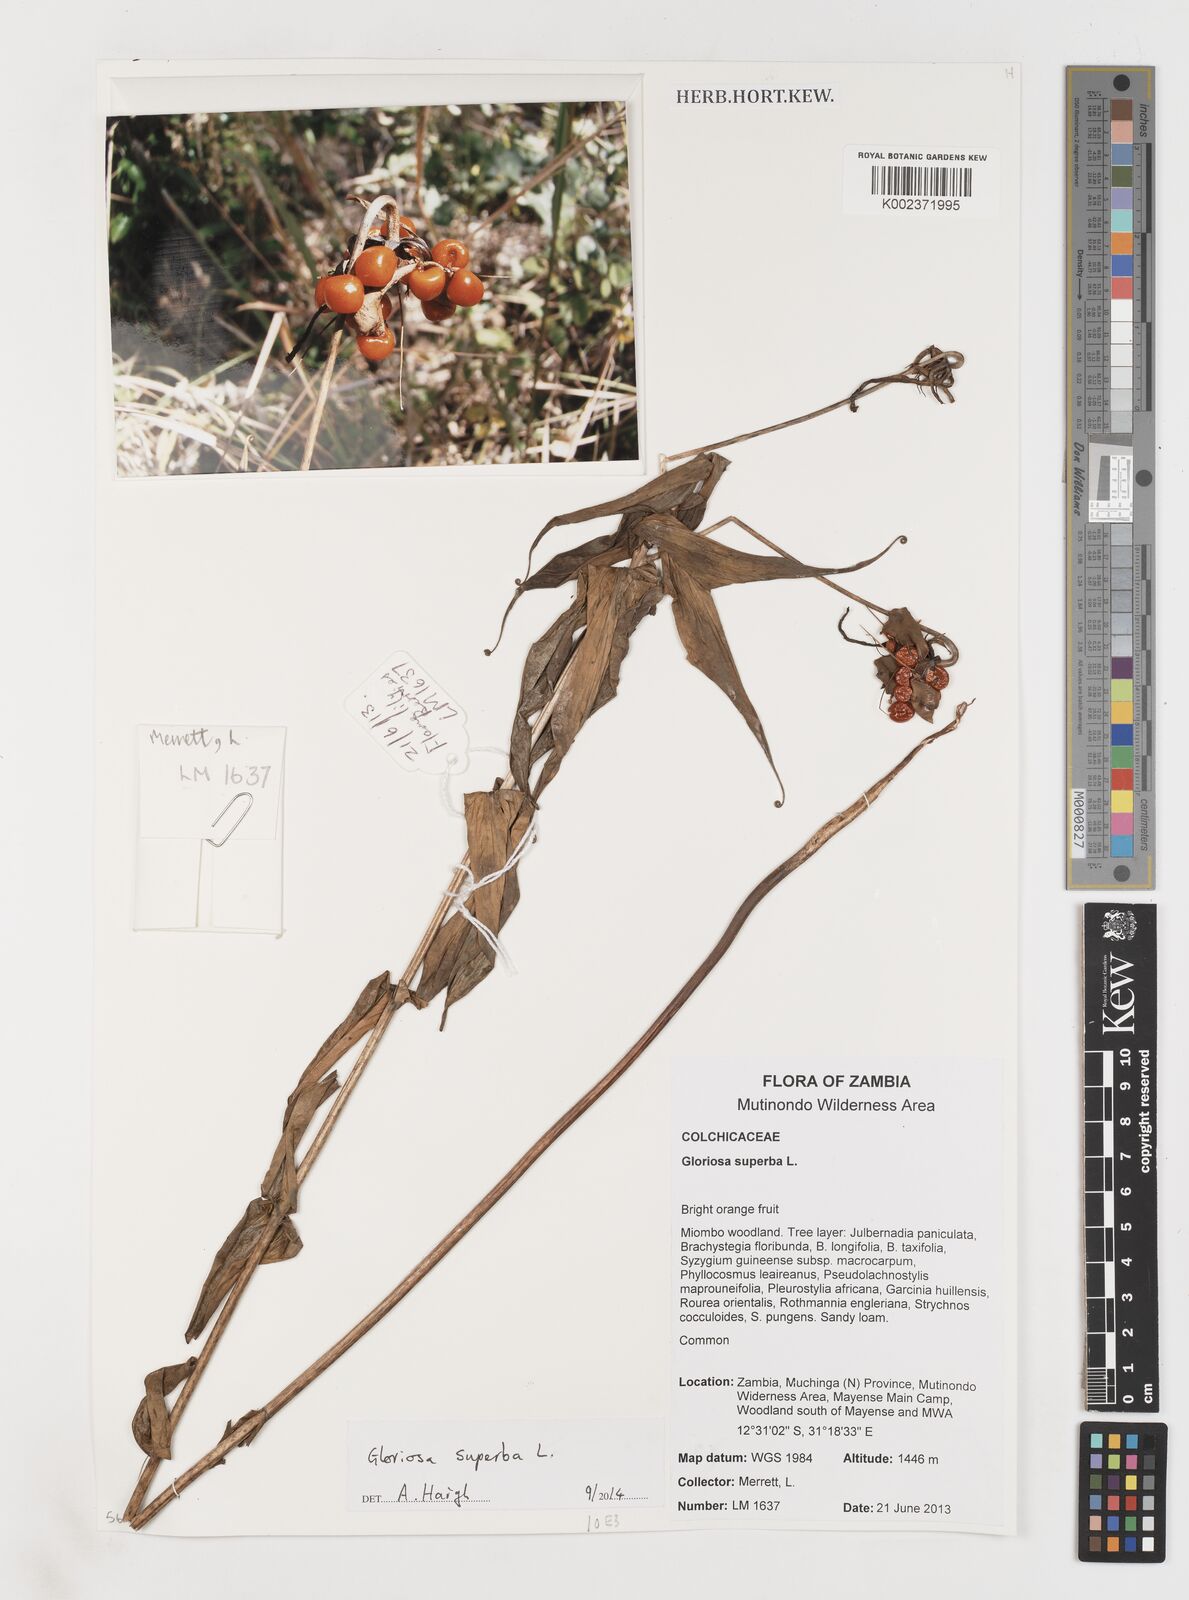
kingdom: Plantae
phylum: Tracheophyta
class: Liliopsida
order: Liliales
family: Colchicaceae
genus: Gloriosa
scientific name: Gloriosa superba
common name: Flame lily
